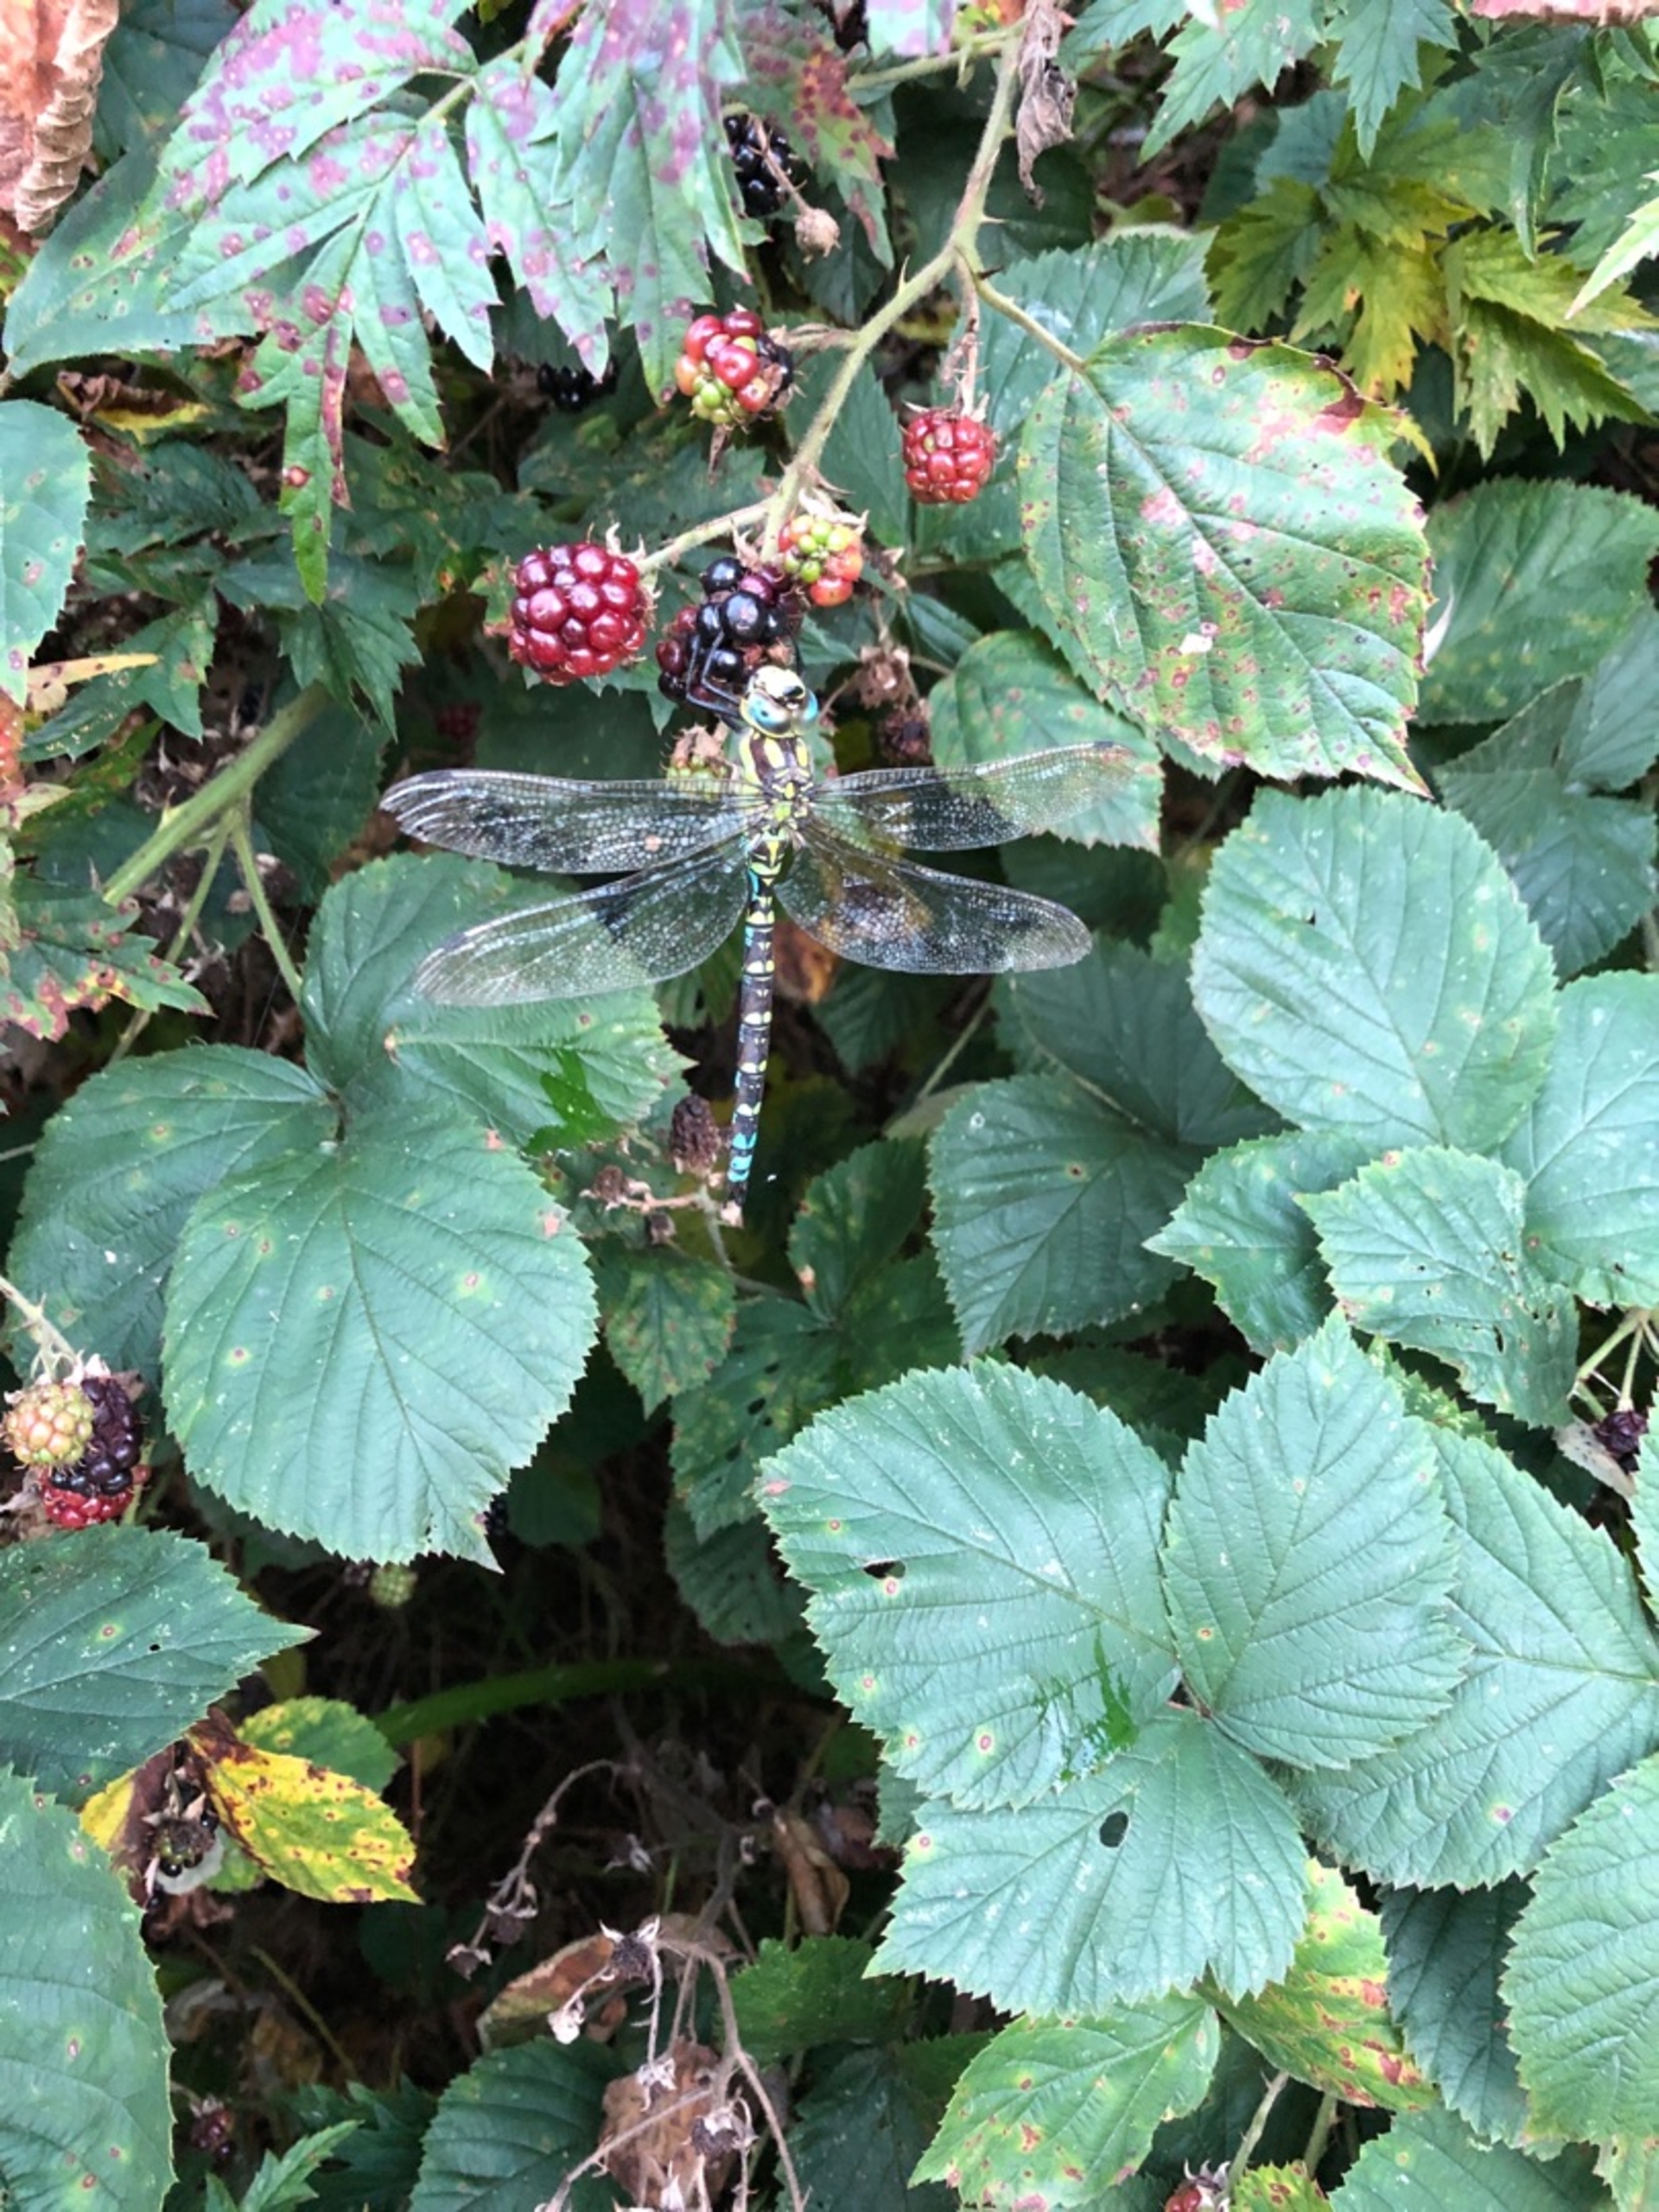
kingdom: Animalia
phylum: Arthropoda
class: Insecta
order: Odonata
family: Aeshnidae
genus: Aeshna
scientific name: Aeshna cyanea
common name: Blå mosaikguldsmed
